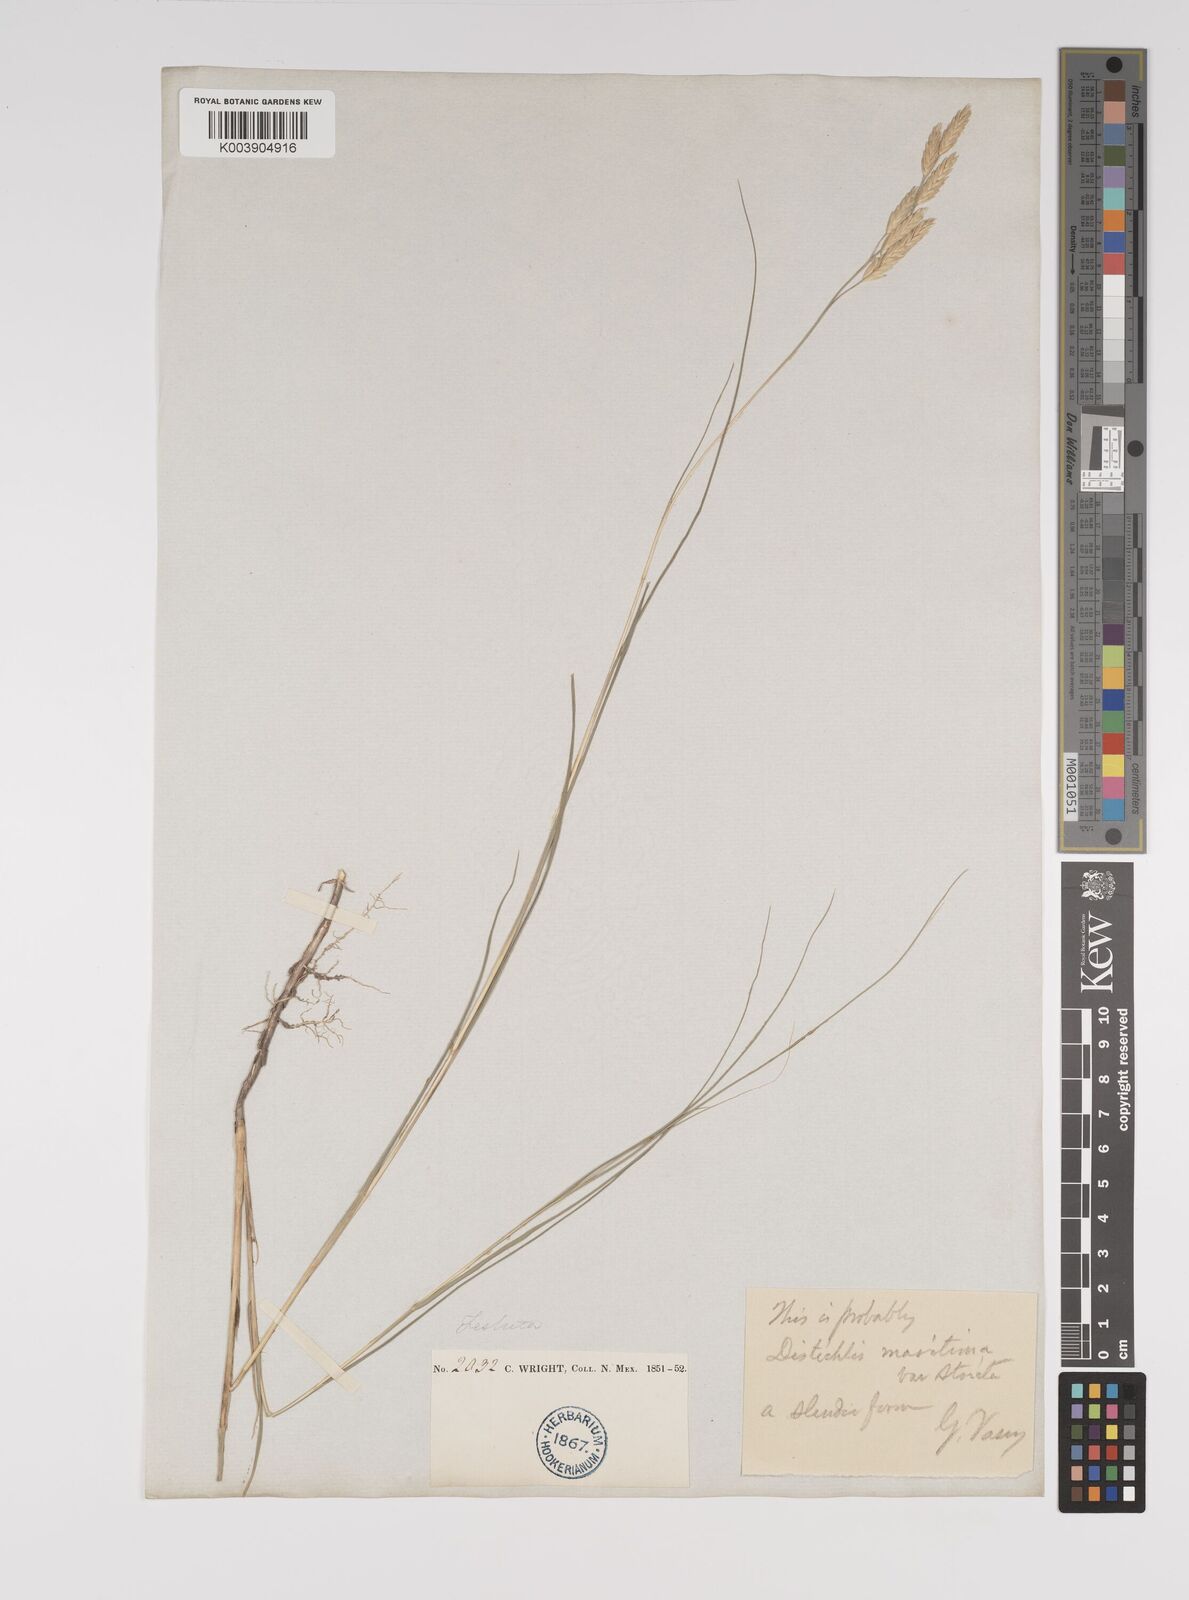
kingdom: Plantae
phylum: Tracheophyta
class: Liliopsida
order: Poales
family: Poaceae
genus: Distichlis
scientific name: Distichlis spicata
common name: Saltgrass
